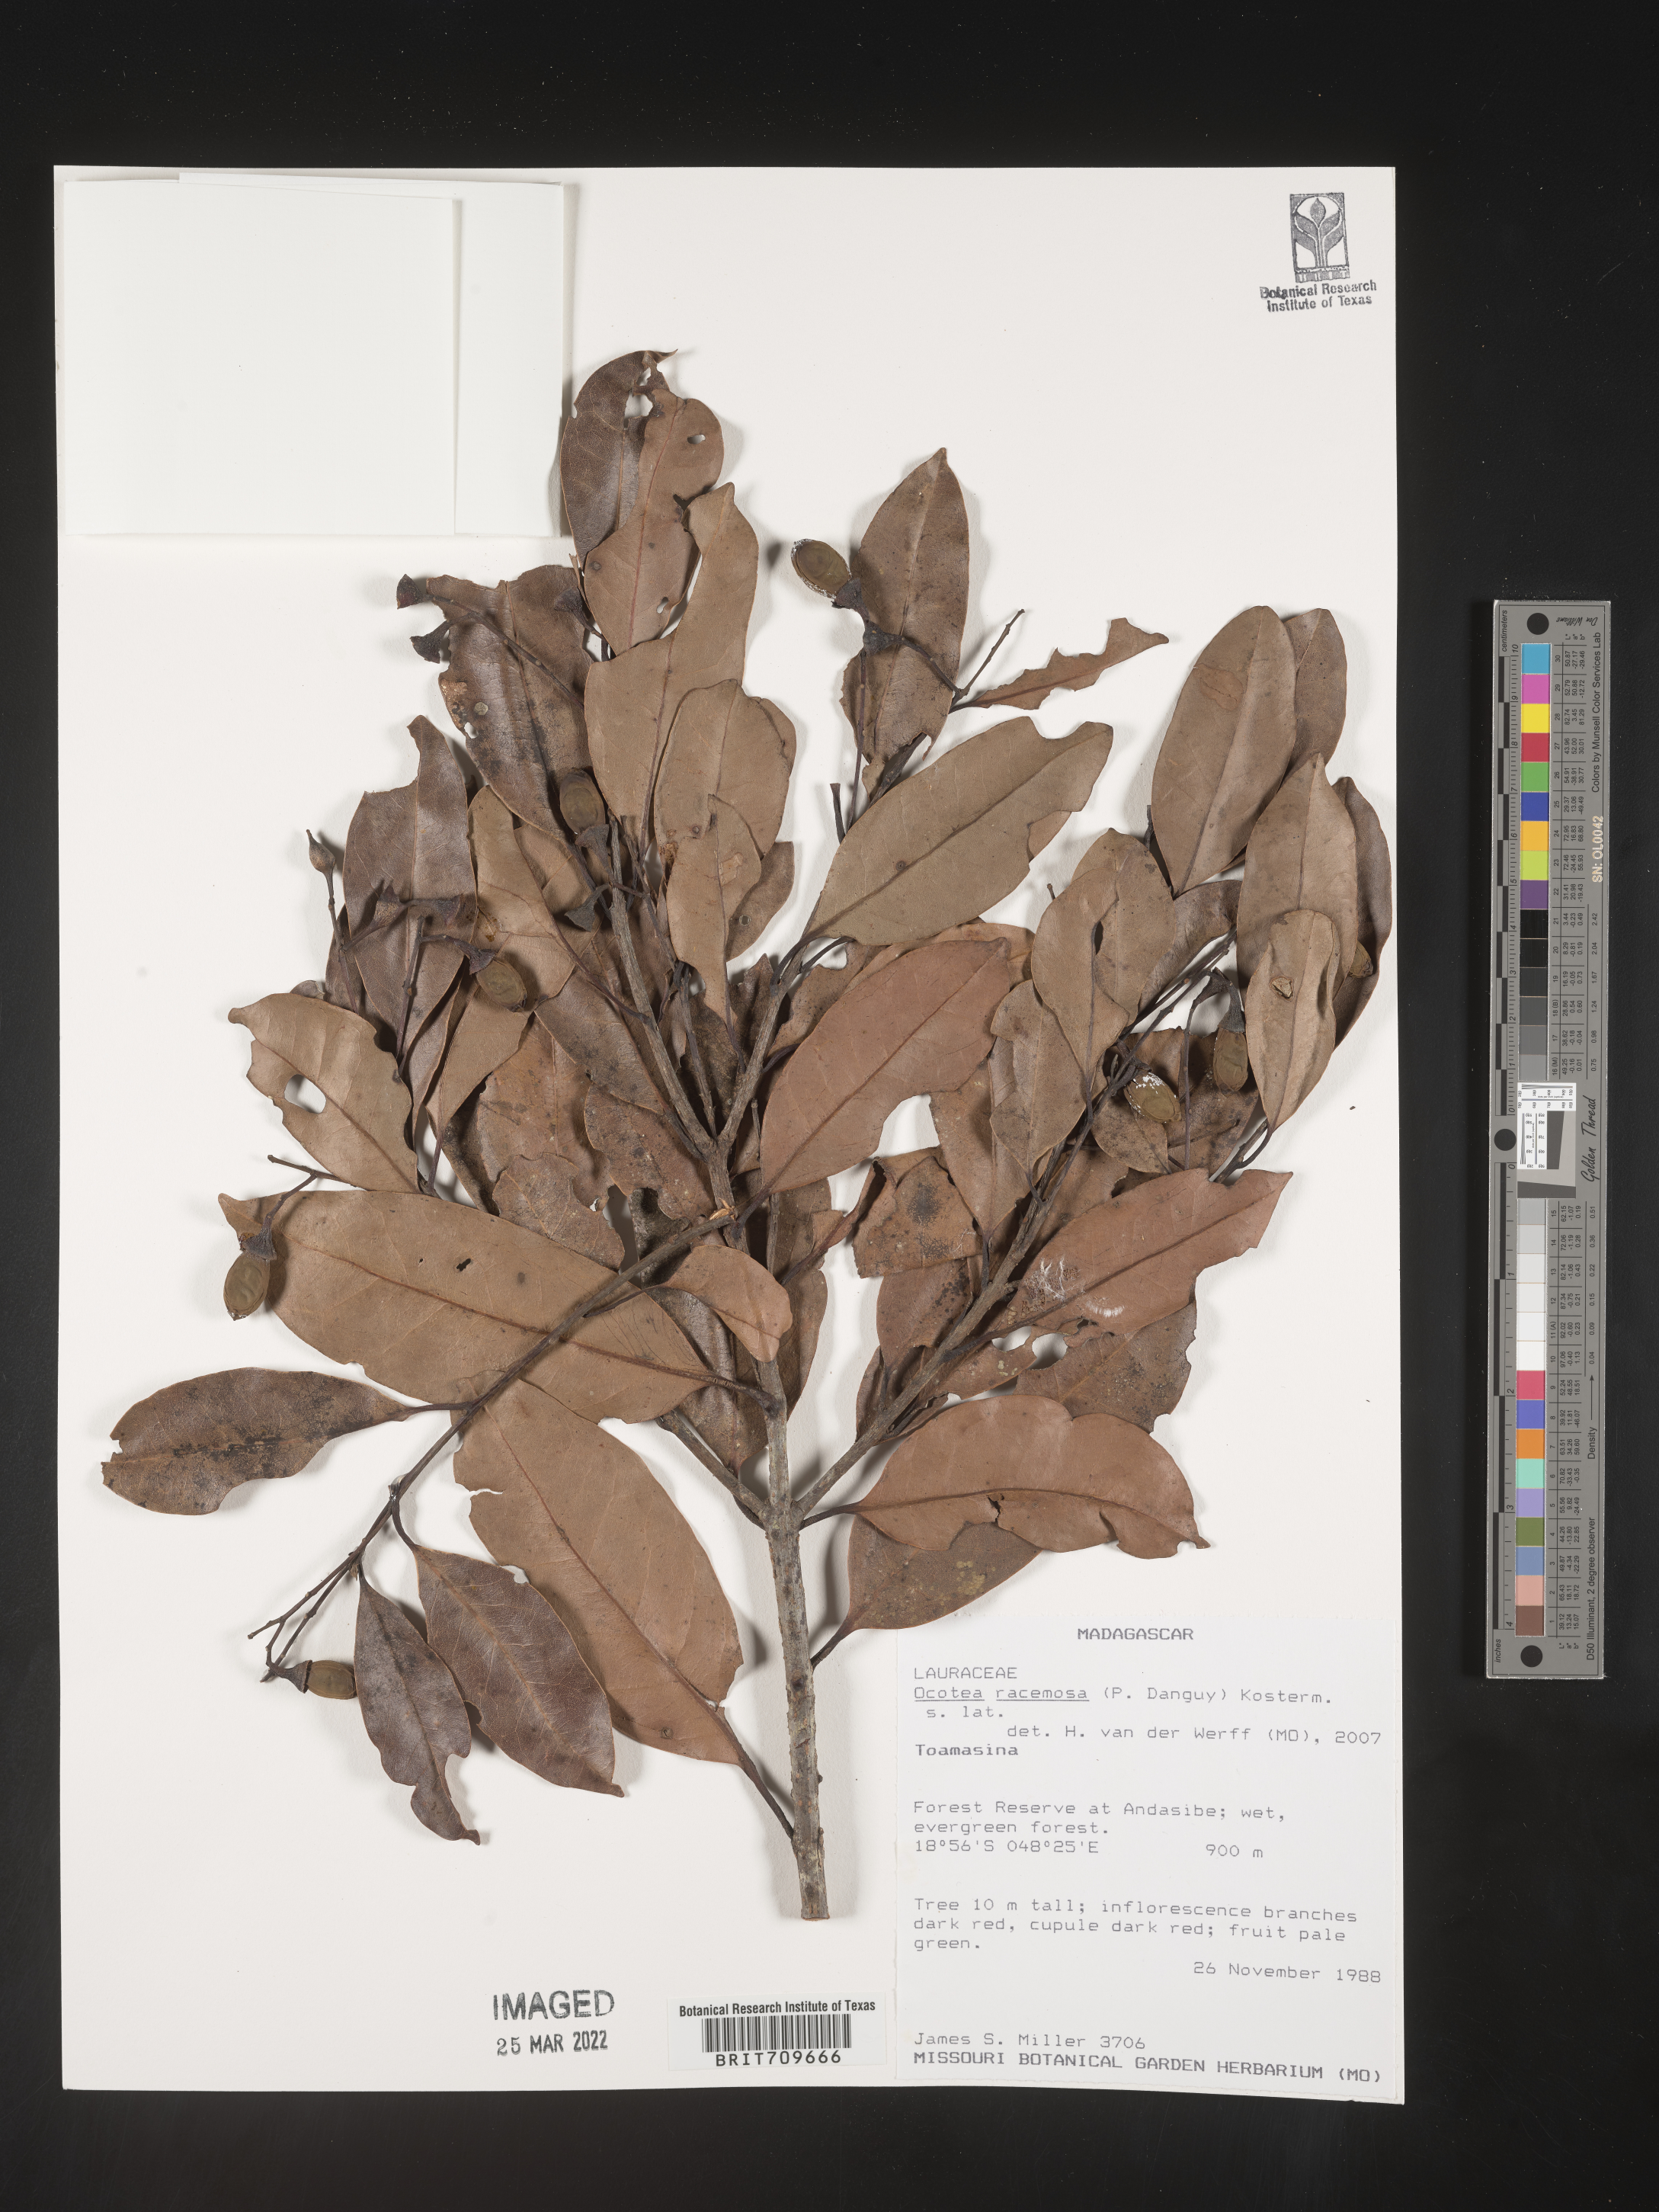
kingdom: Plantae
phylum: Tracheophyta
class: Magnoliopsida
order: Laurales
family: Lauraceae
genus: Ocotea
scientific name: Ocotea
